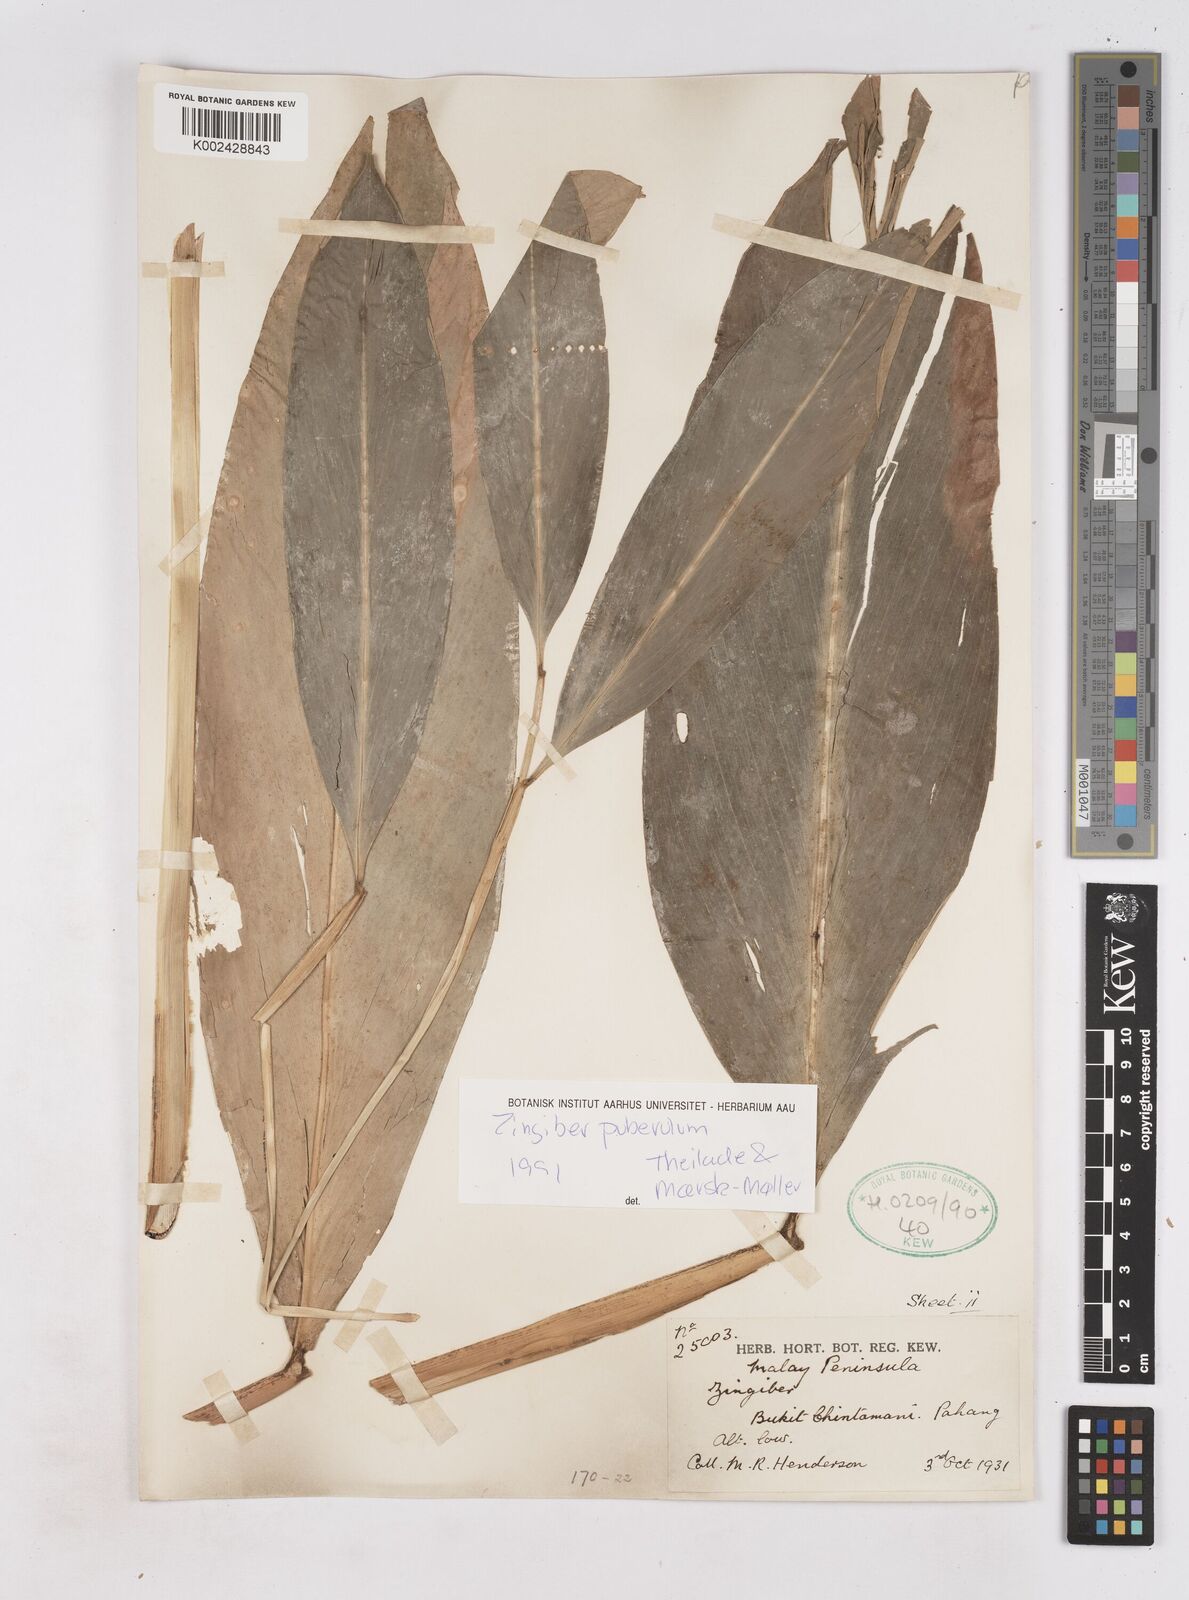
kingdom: Plantae
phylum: Tracheophyta
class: Liliopsida
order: Zingiberales
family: Zingiberaceae
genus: Zingiber
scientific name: Zingiber puberulum
